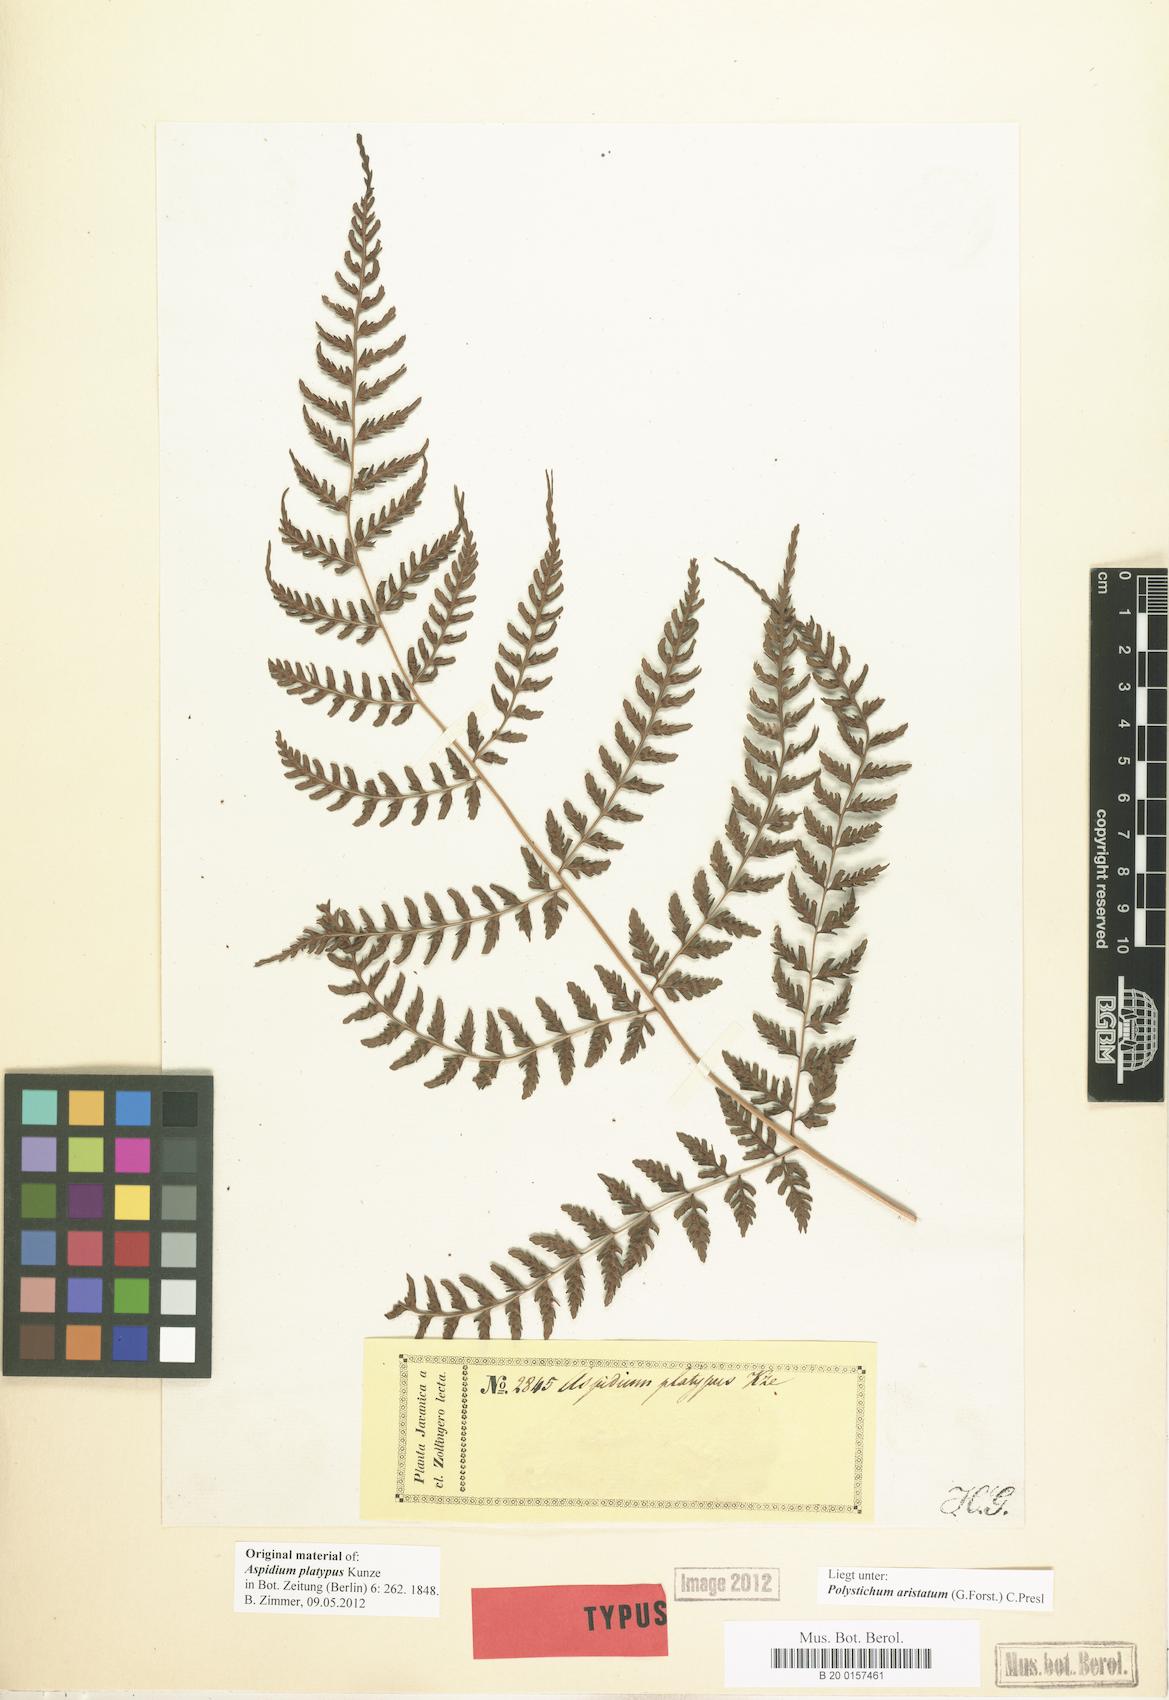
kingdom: Plantae
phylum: Tracheophyta
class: Polypodiopsida
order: Polypodiales
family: Dryopteridaceae
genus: Arachniodes
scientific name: Arachniodes aristata
